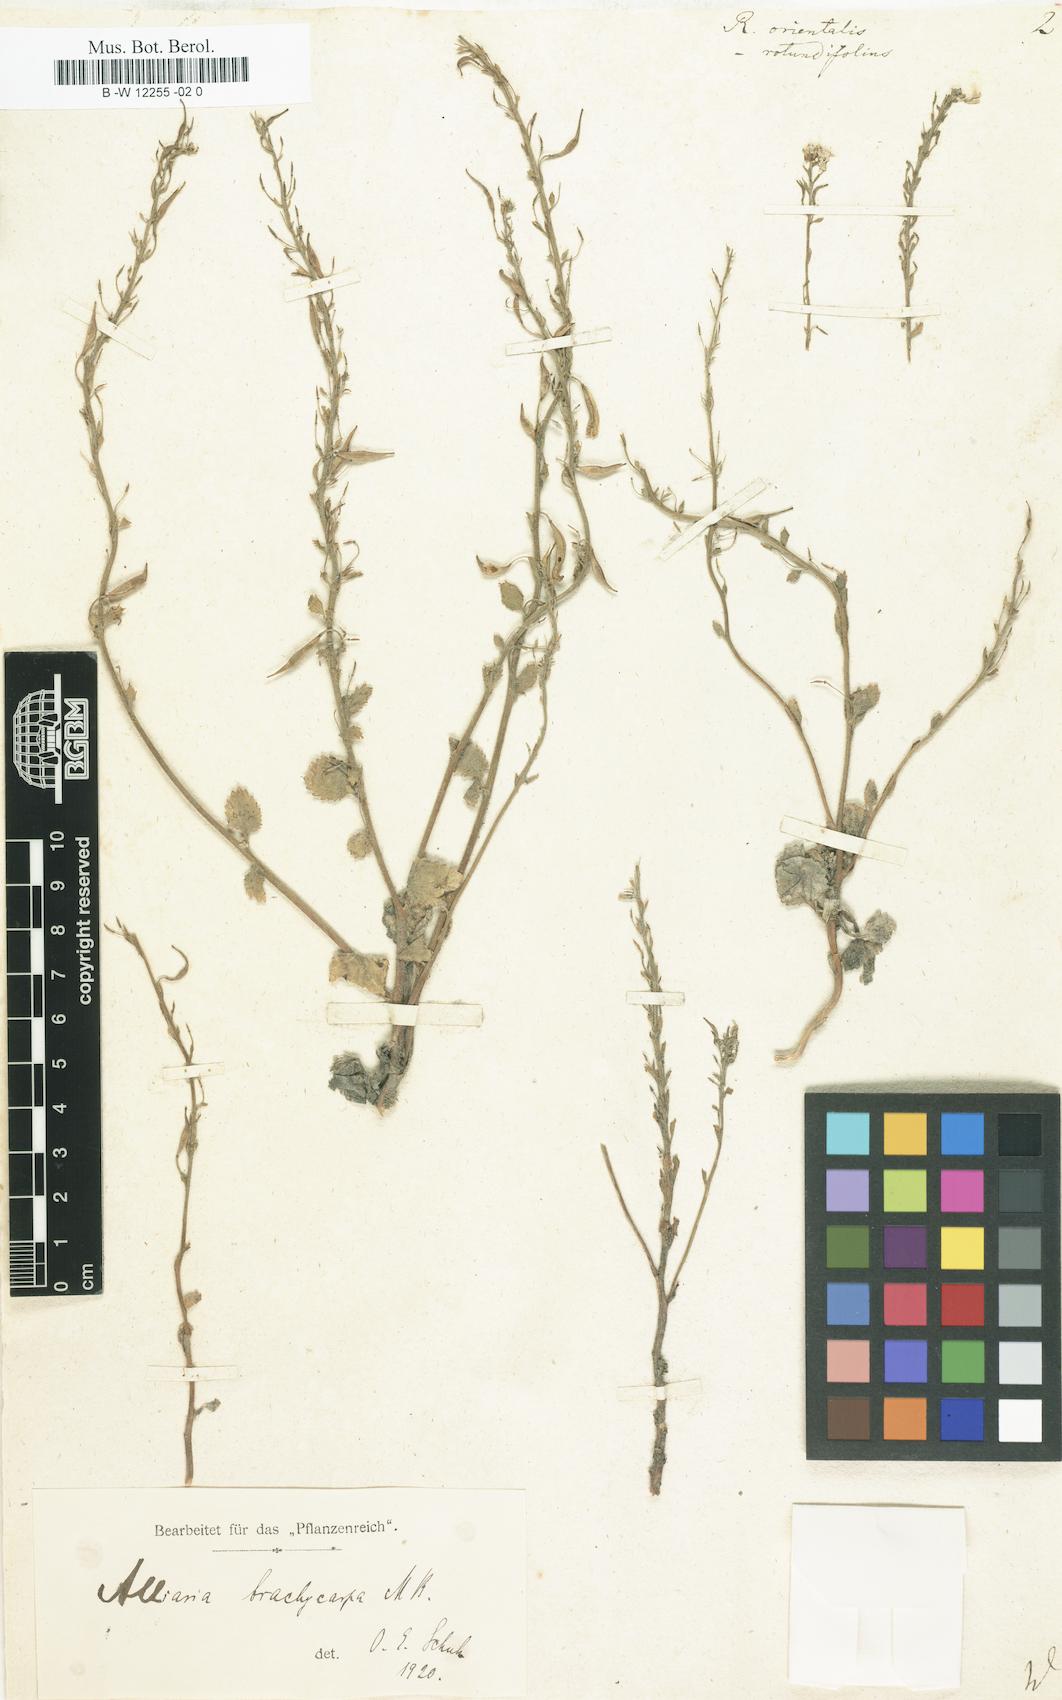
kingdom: Plantae
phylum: Tracheophyta
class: Magnoliopsida
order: Brassicales
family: Brassicaceae
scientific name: Brassicaceae
